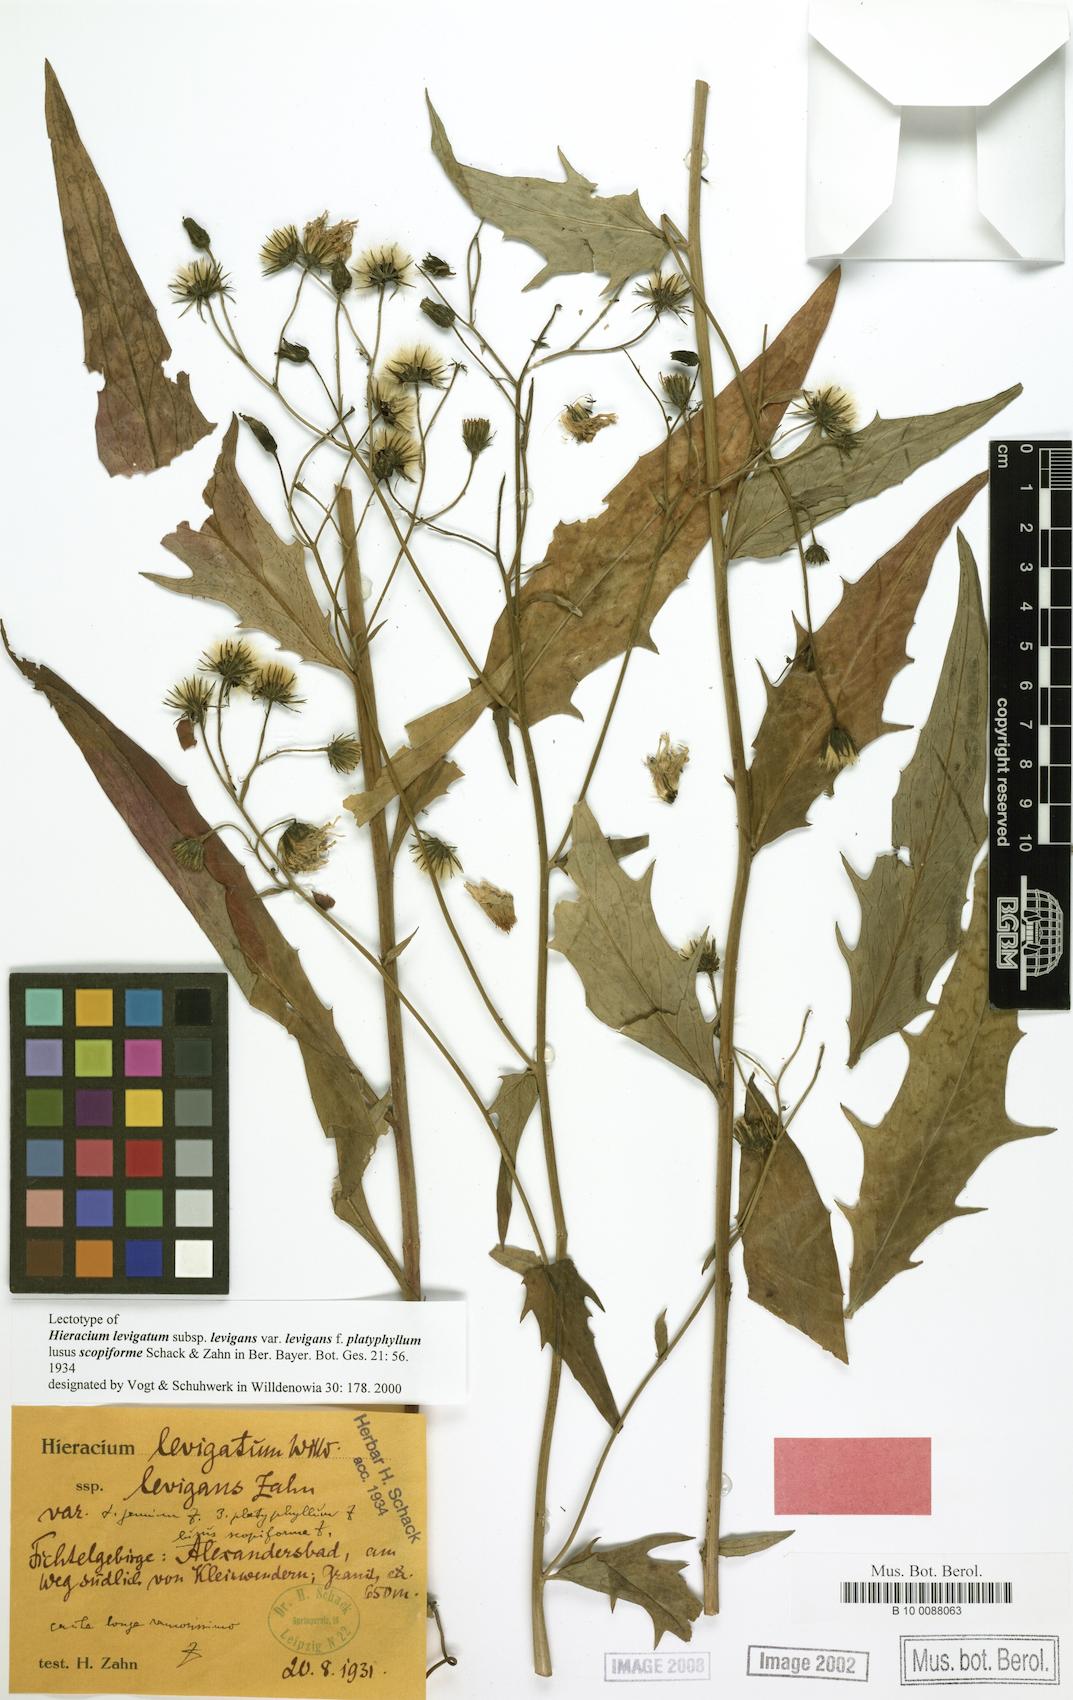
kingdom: Plantae
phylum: Tracheophyta
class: Magnoliopsida
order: Asterales
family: Asteraceae
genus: Hieracium
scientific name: Hieracium laevigatum
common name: Smooth hawkweed
